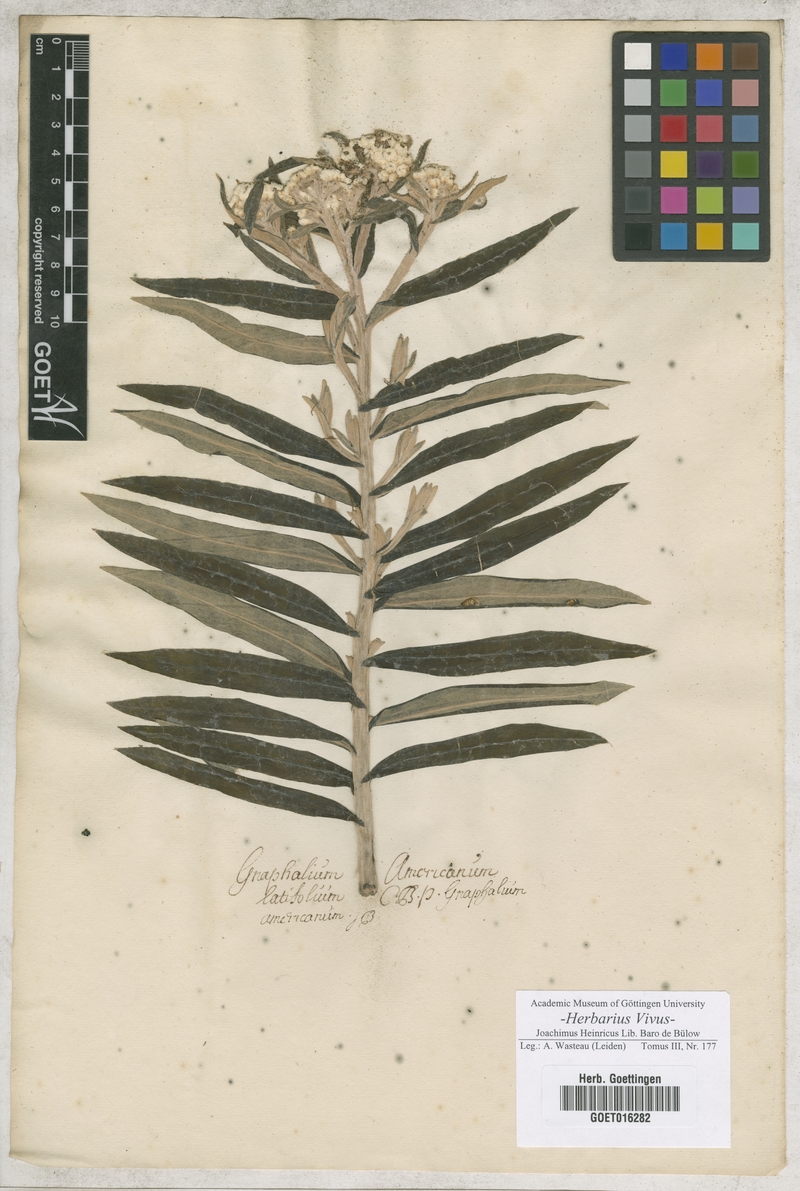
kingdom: Plantae
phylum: Tracheophyta
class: Magnoliopsida
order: Asterales
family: Asteraceae
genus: Anaphalis
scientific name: Anaphalis margaritacea
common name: Pearly everlasting
